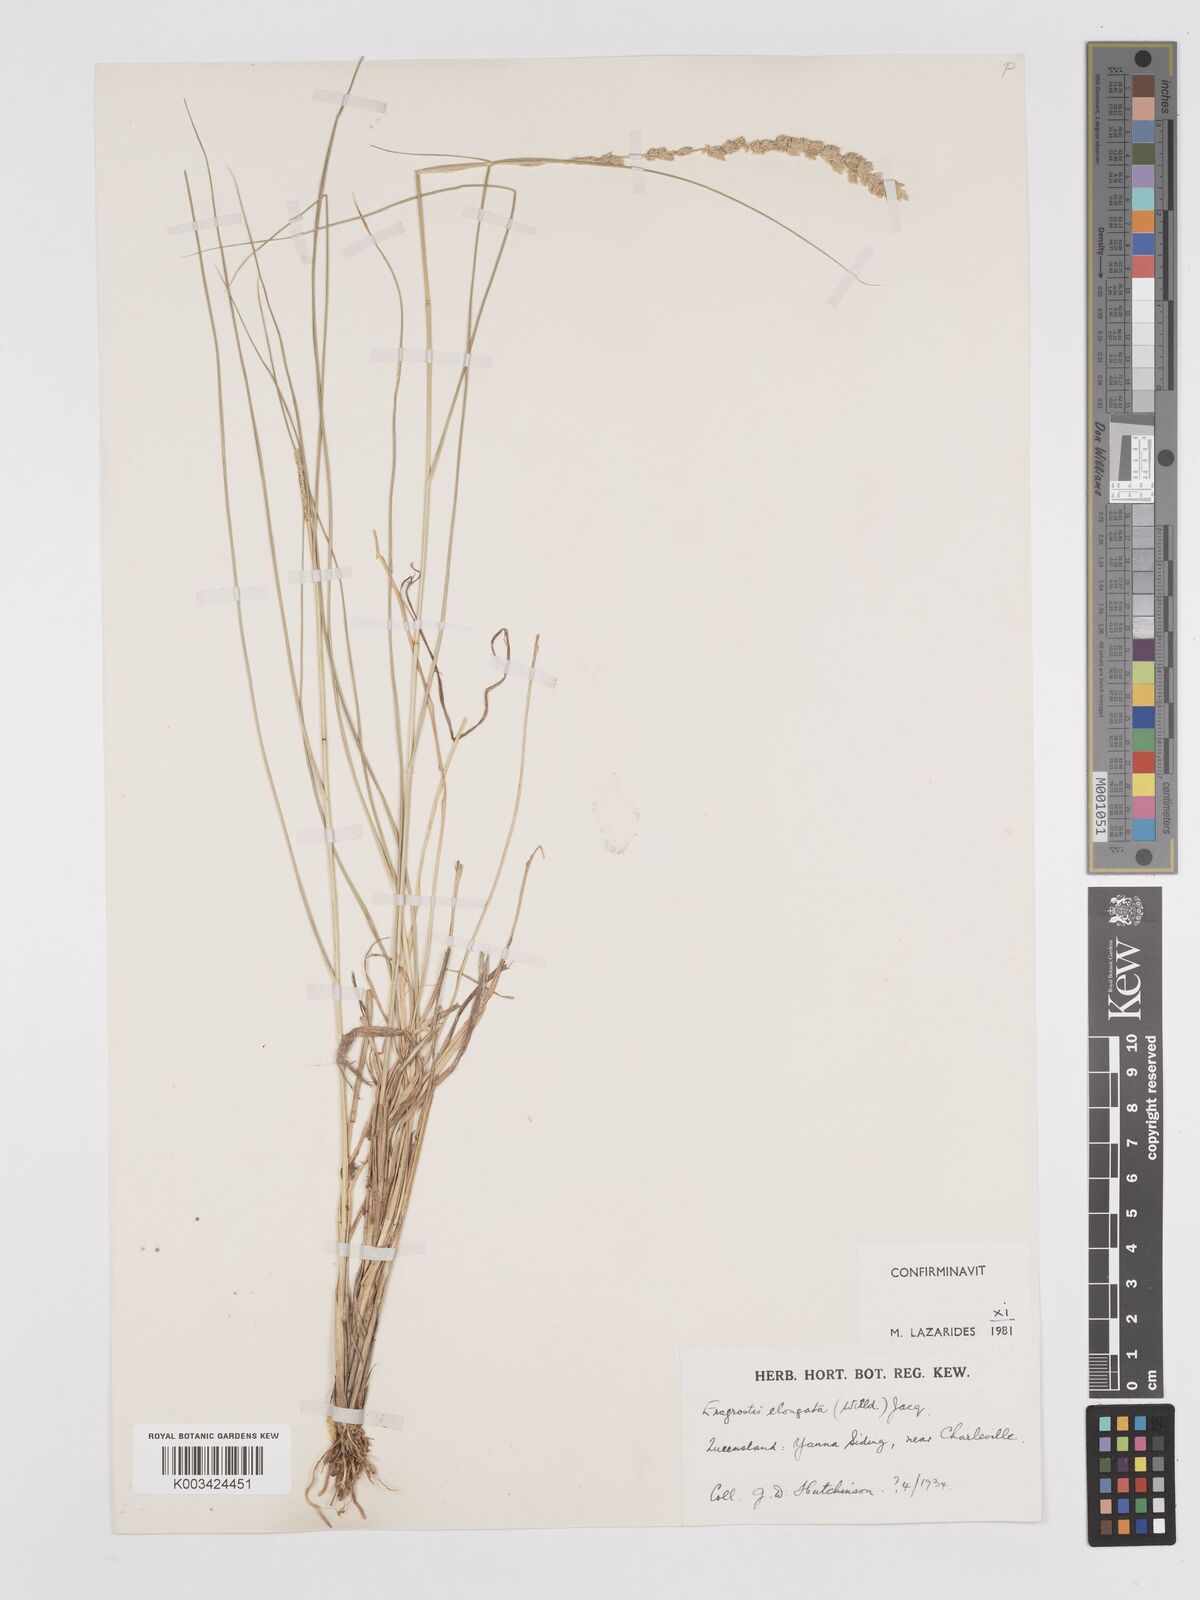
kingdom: Plantae
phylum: Tracheophyta
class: Liliopsida
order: Poales
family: Poaceae
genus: Eragrostis
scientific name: Eragrostis elongata
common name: Long lovegrass
